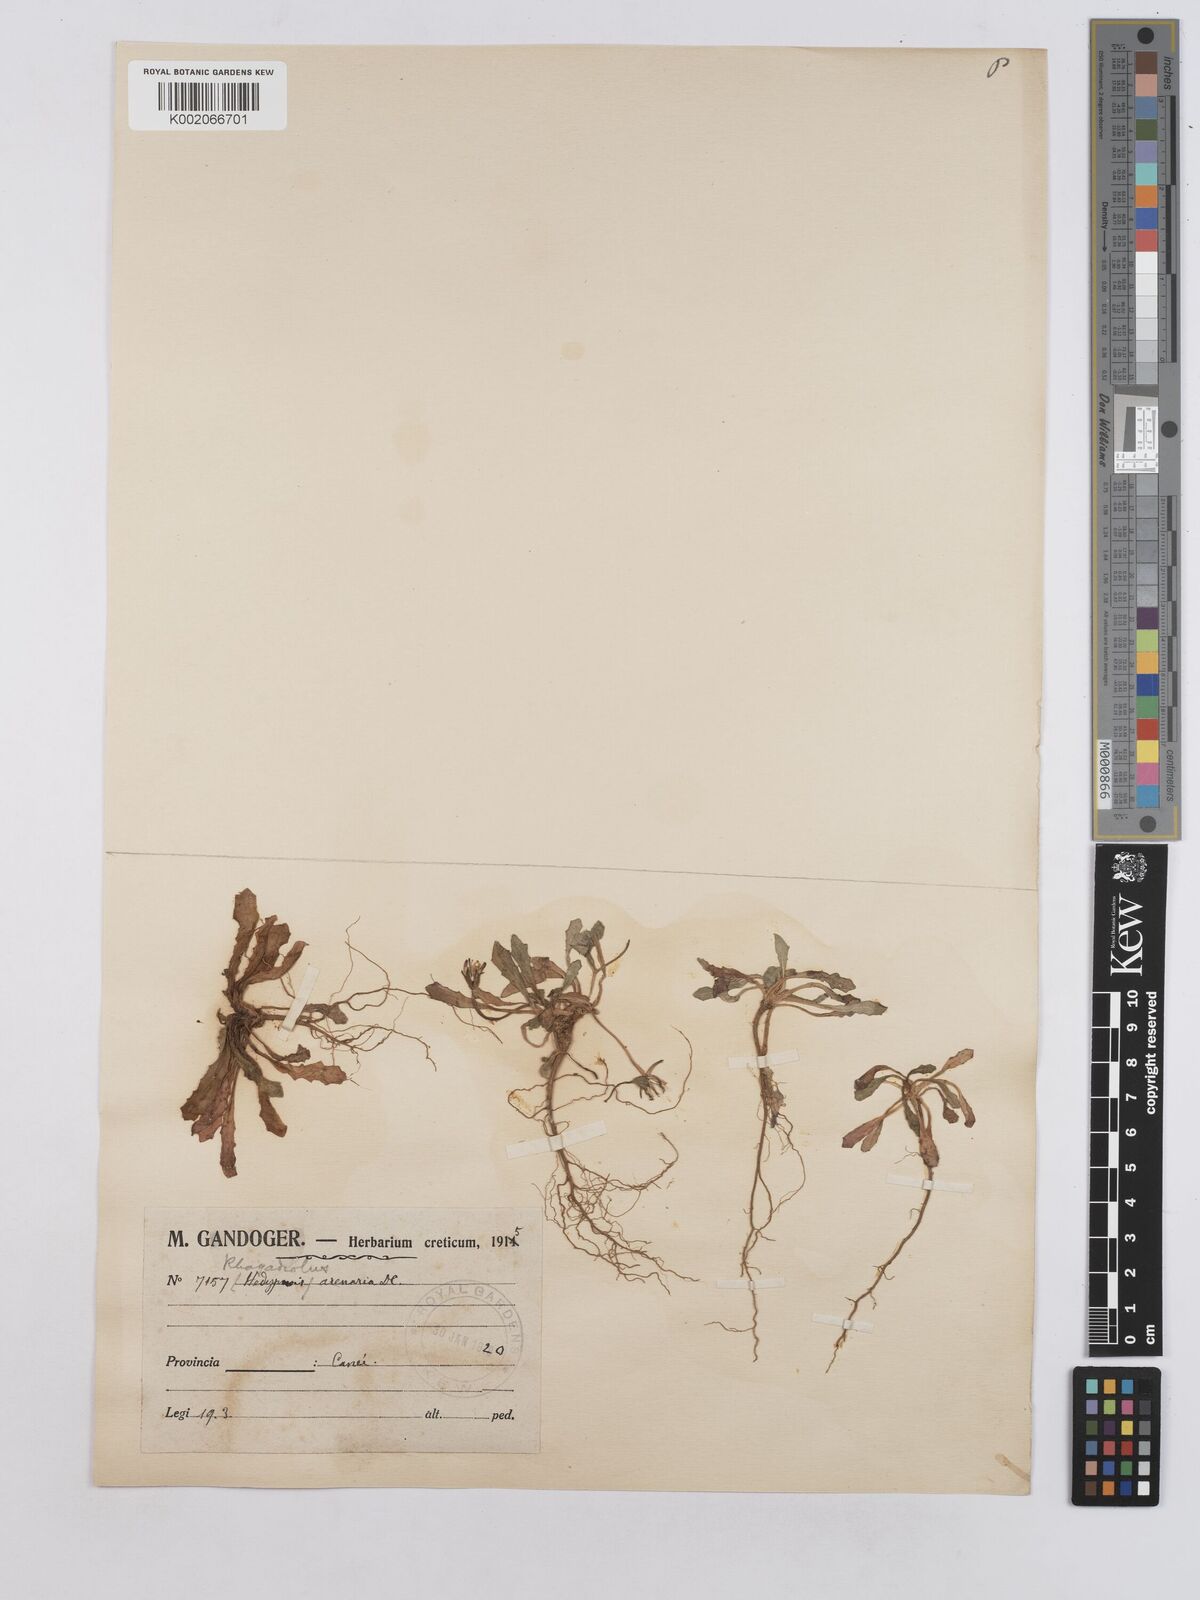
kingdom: Plantae
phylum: Tracheophyta
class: Magnoliopsida
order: Asterales
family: Asteraceae
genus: Hedypnois
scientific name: Hedypnois rhagadioloides
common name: Cretan weed
